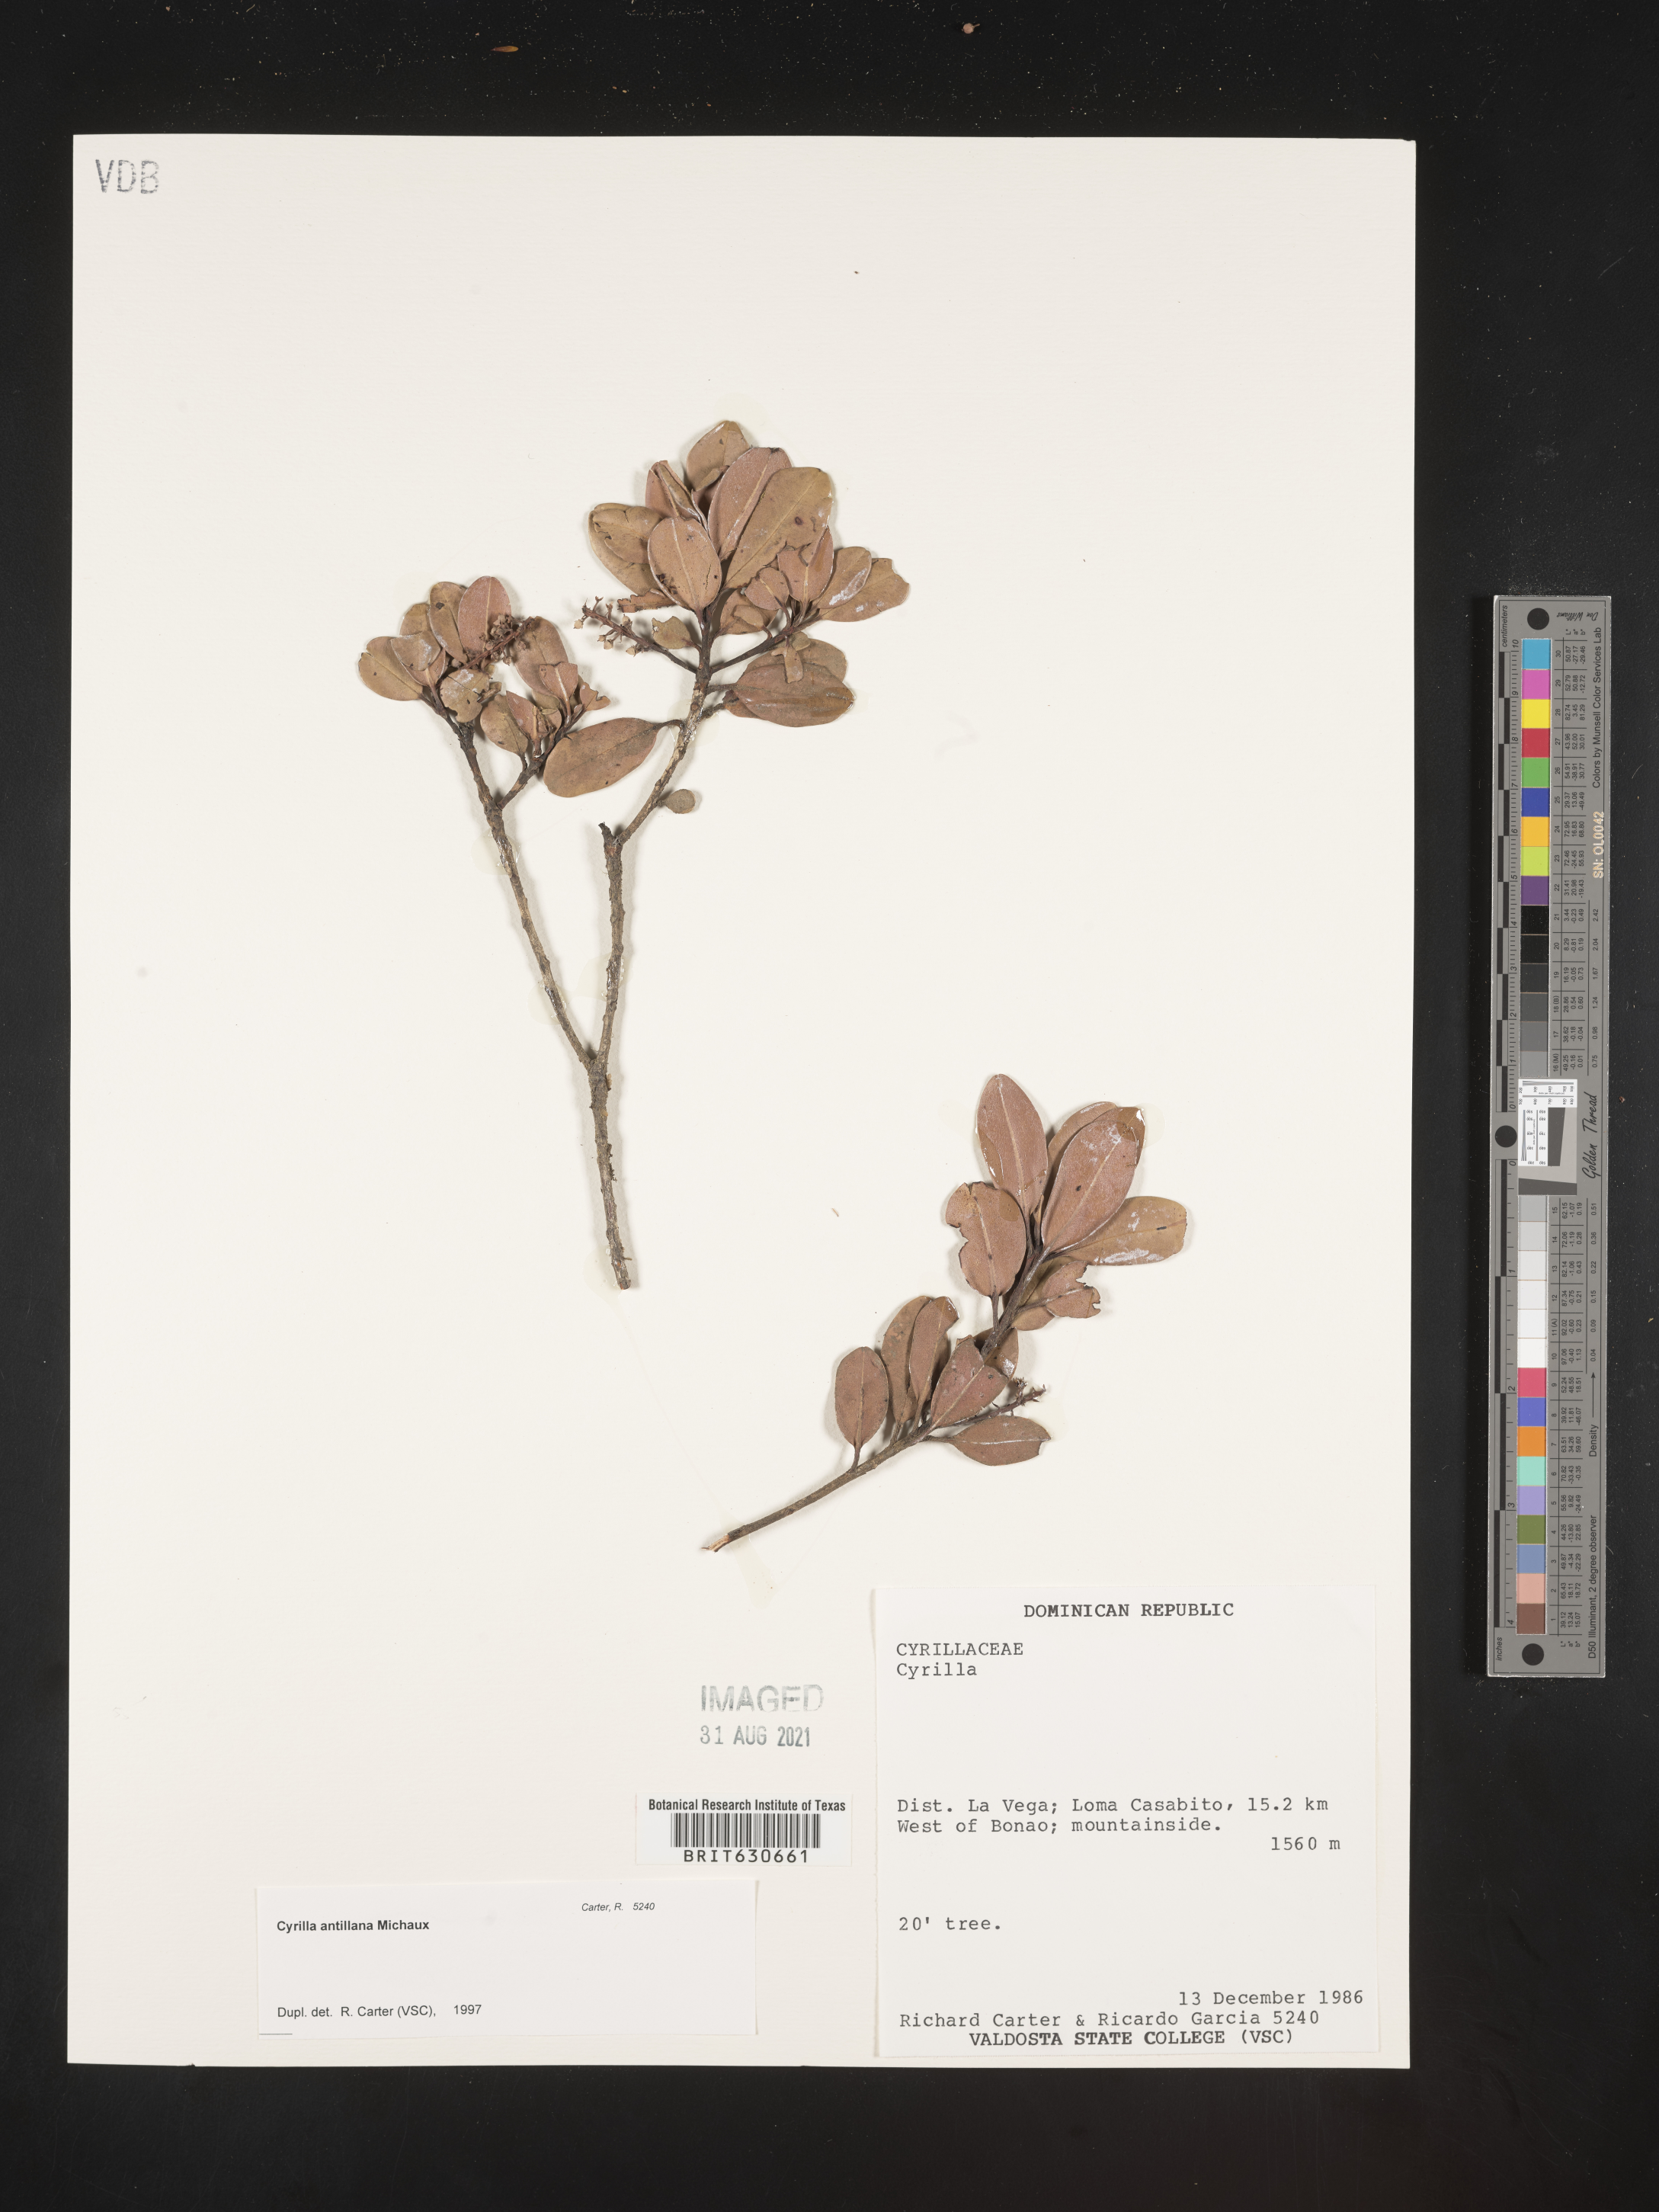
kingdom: Plantae
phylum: Tracheophyta
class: Magnoliopsida
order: Ericales
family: Cyrillaceae
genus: Cyrilla
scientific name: Cyrilla racemiflora
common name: Black titi
